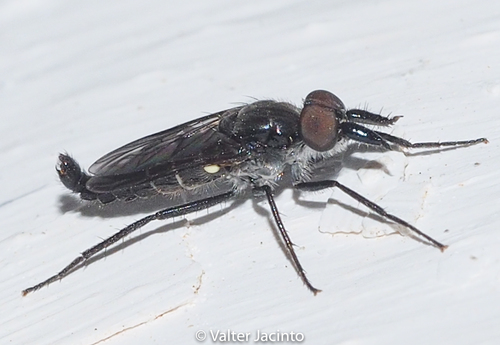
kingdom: Animalia
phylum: Arthropoda
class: Insecta
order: Diptera
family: Therevidae
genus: Salentia
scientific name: Salentia xestomyzina
